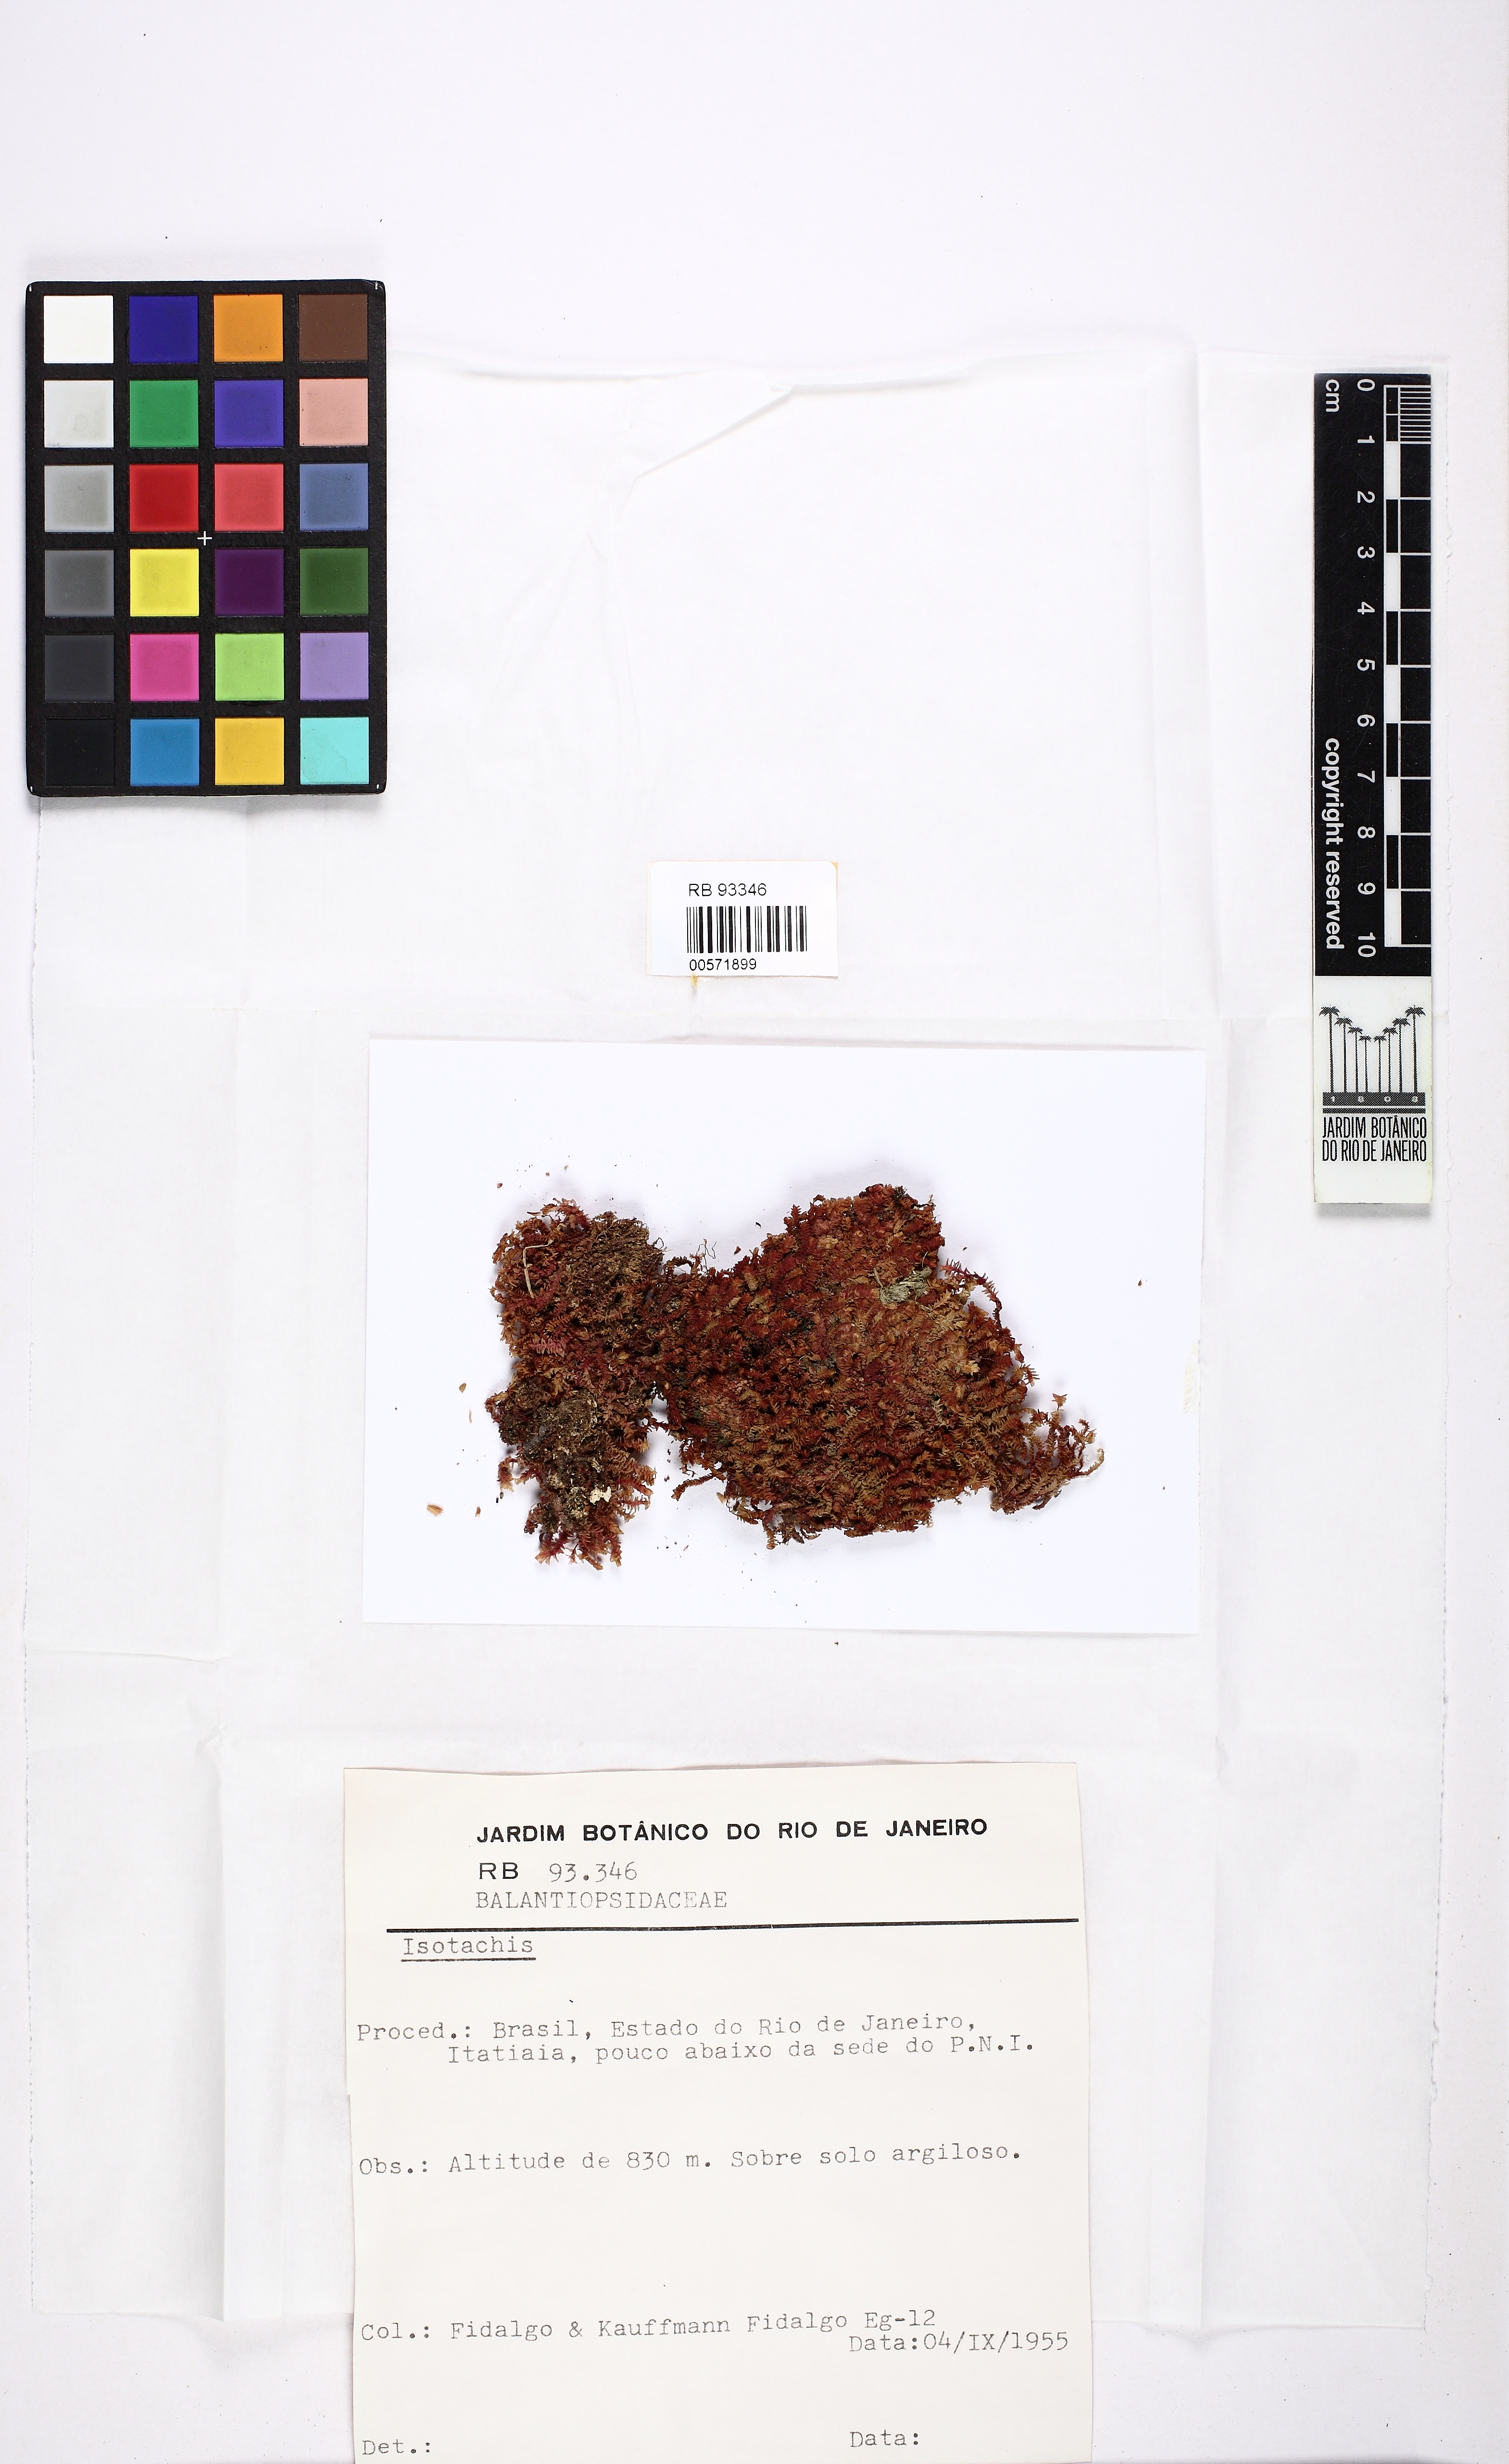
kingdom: Plantae
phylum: Marchantiophyta
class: Jungermanniopsida
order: Jungermanniales
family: Balantiopsidaceae
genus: Isotachis
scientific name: Isotachis
